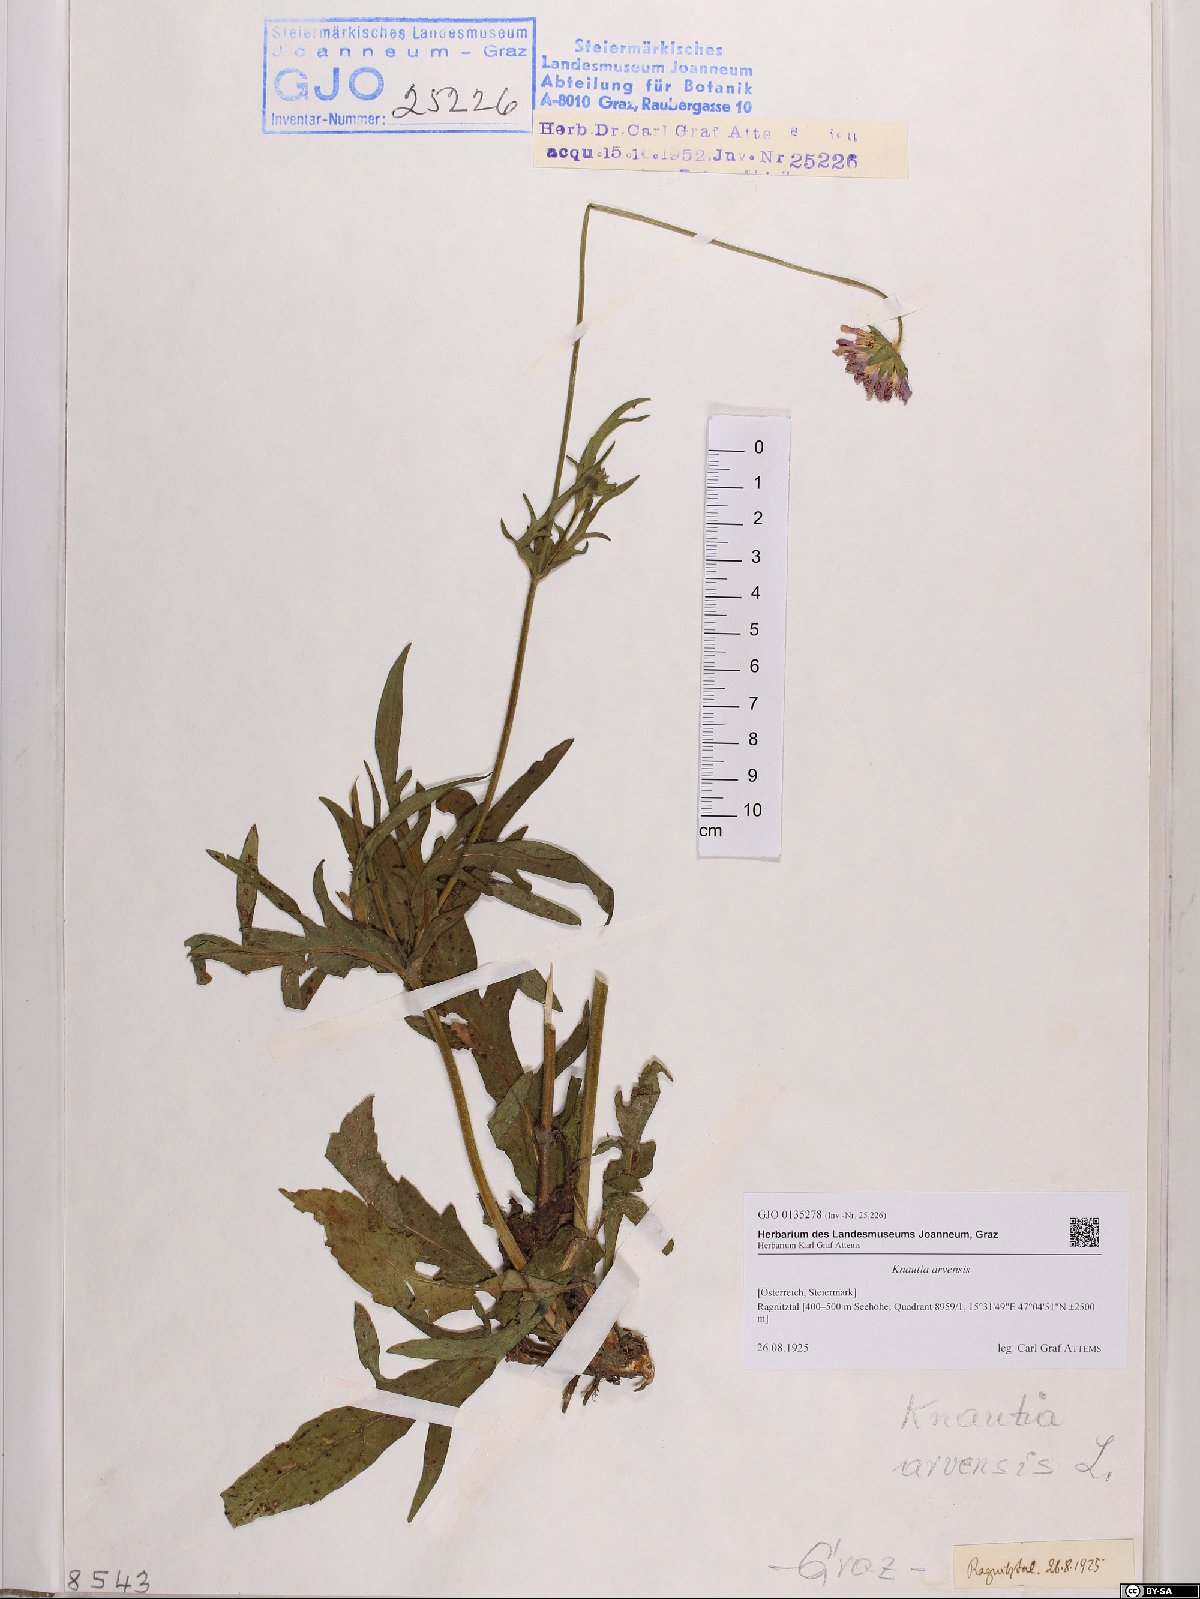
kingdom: Plantae
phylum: Tracheophyta
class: Magnoliopsida
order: Dipsacales
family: Caprifoliaceae
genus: Knautia
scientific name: Knautia arvensis
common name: Field scabiosa
